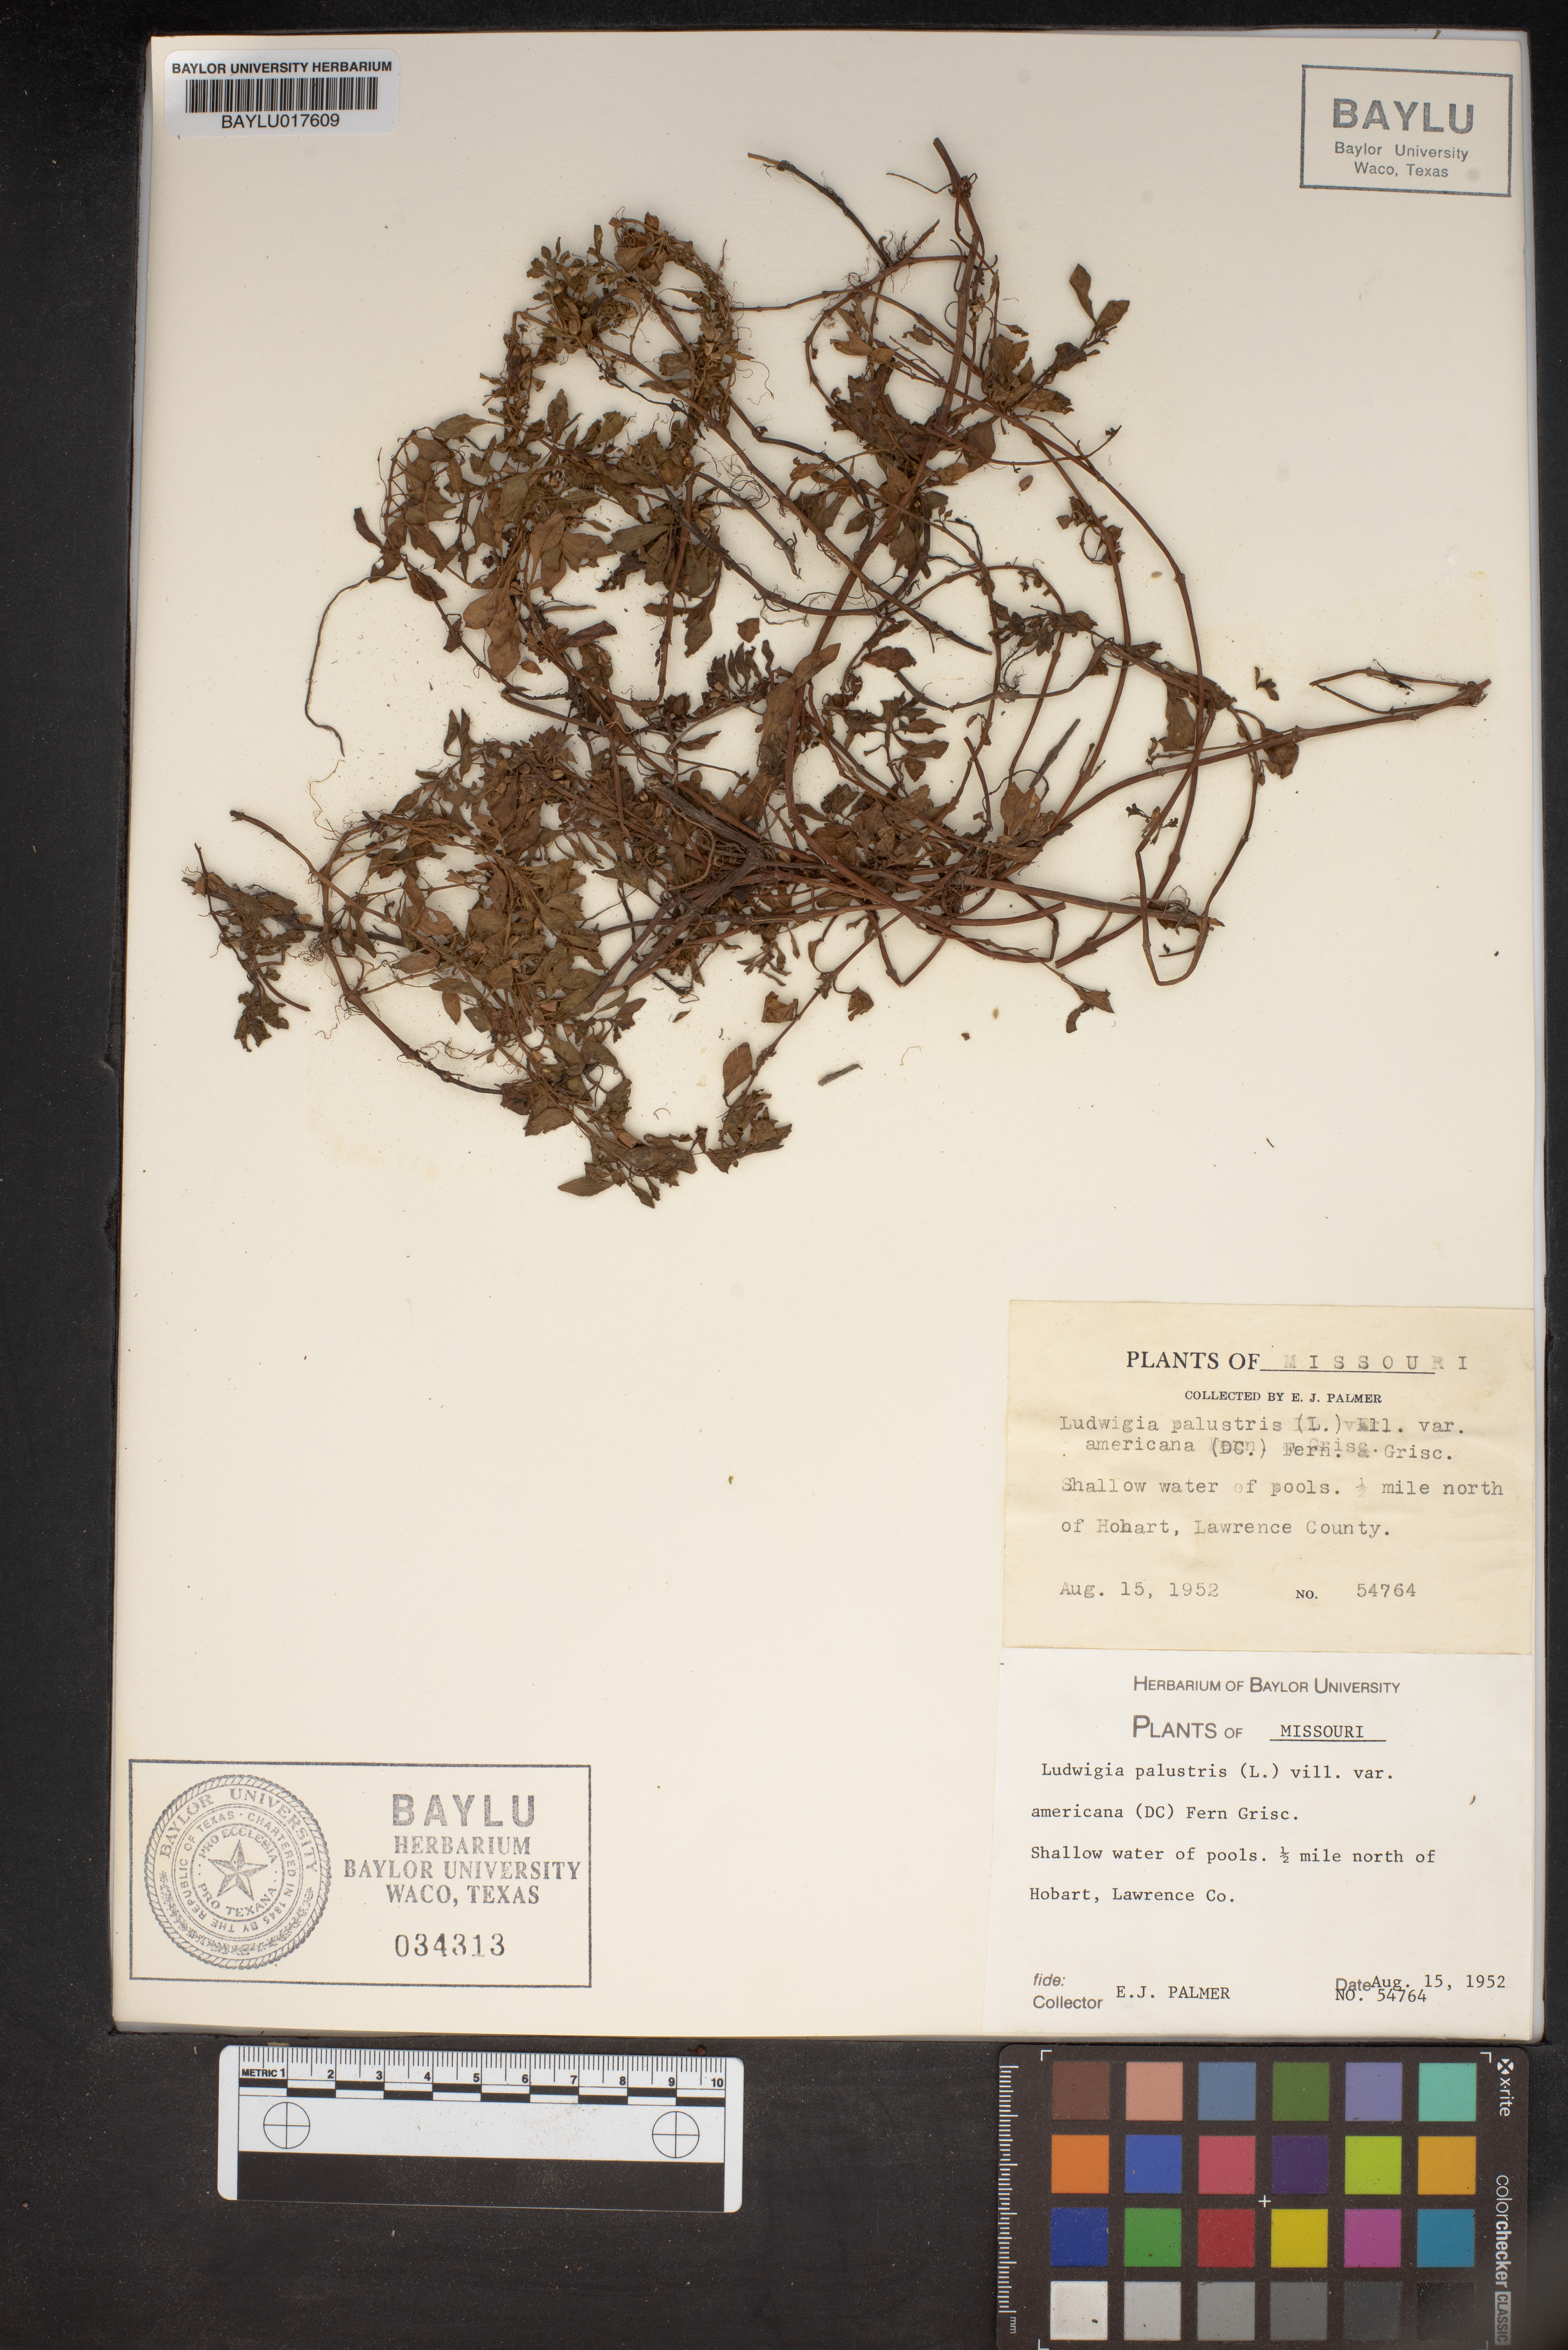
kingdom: Plantae
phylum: Tracheophyta
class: Magnoliopsida
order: Myrtales
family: Onagraceae
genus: Ludwigia
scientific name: Ludwigia palustris
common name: Hampshire-purslane
